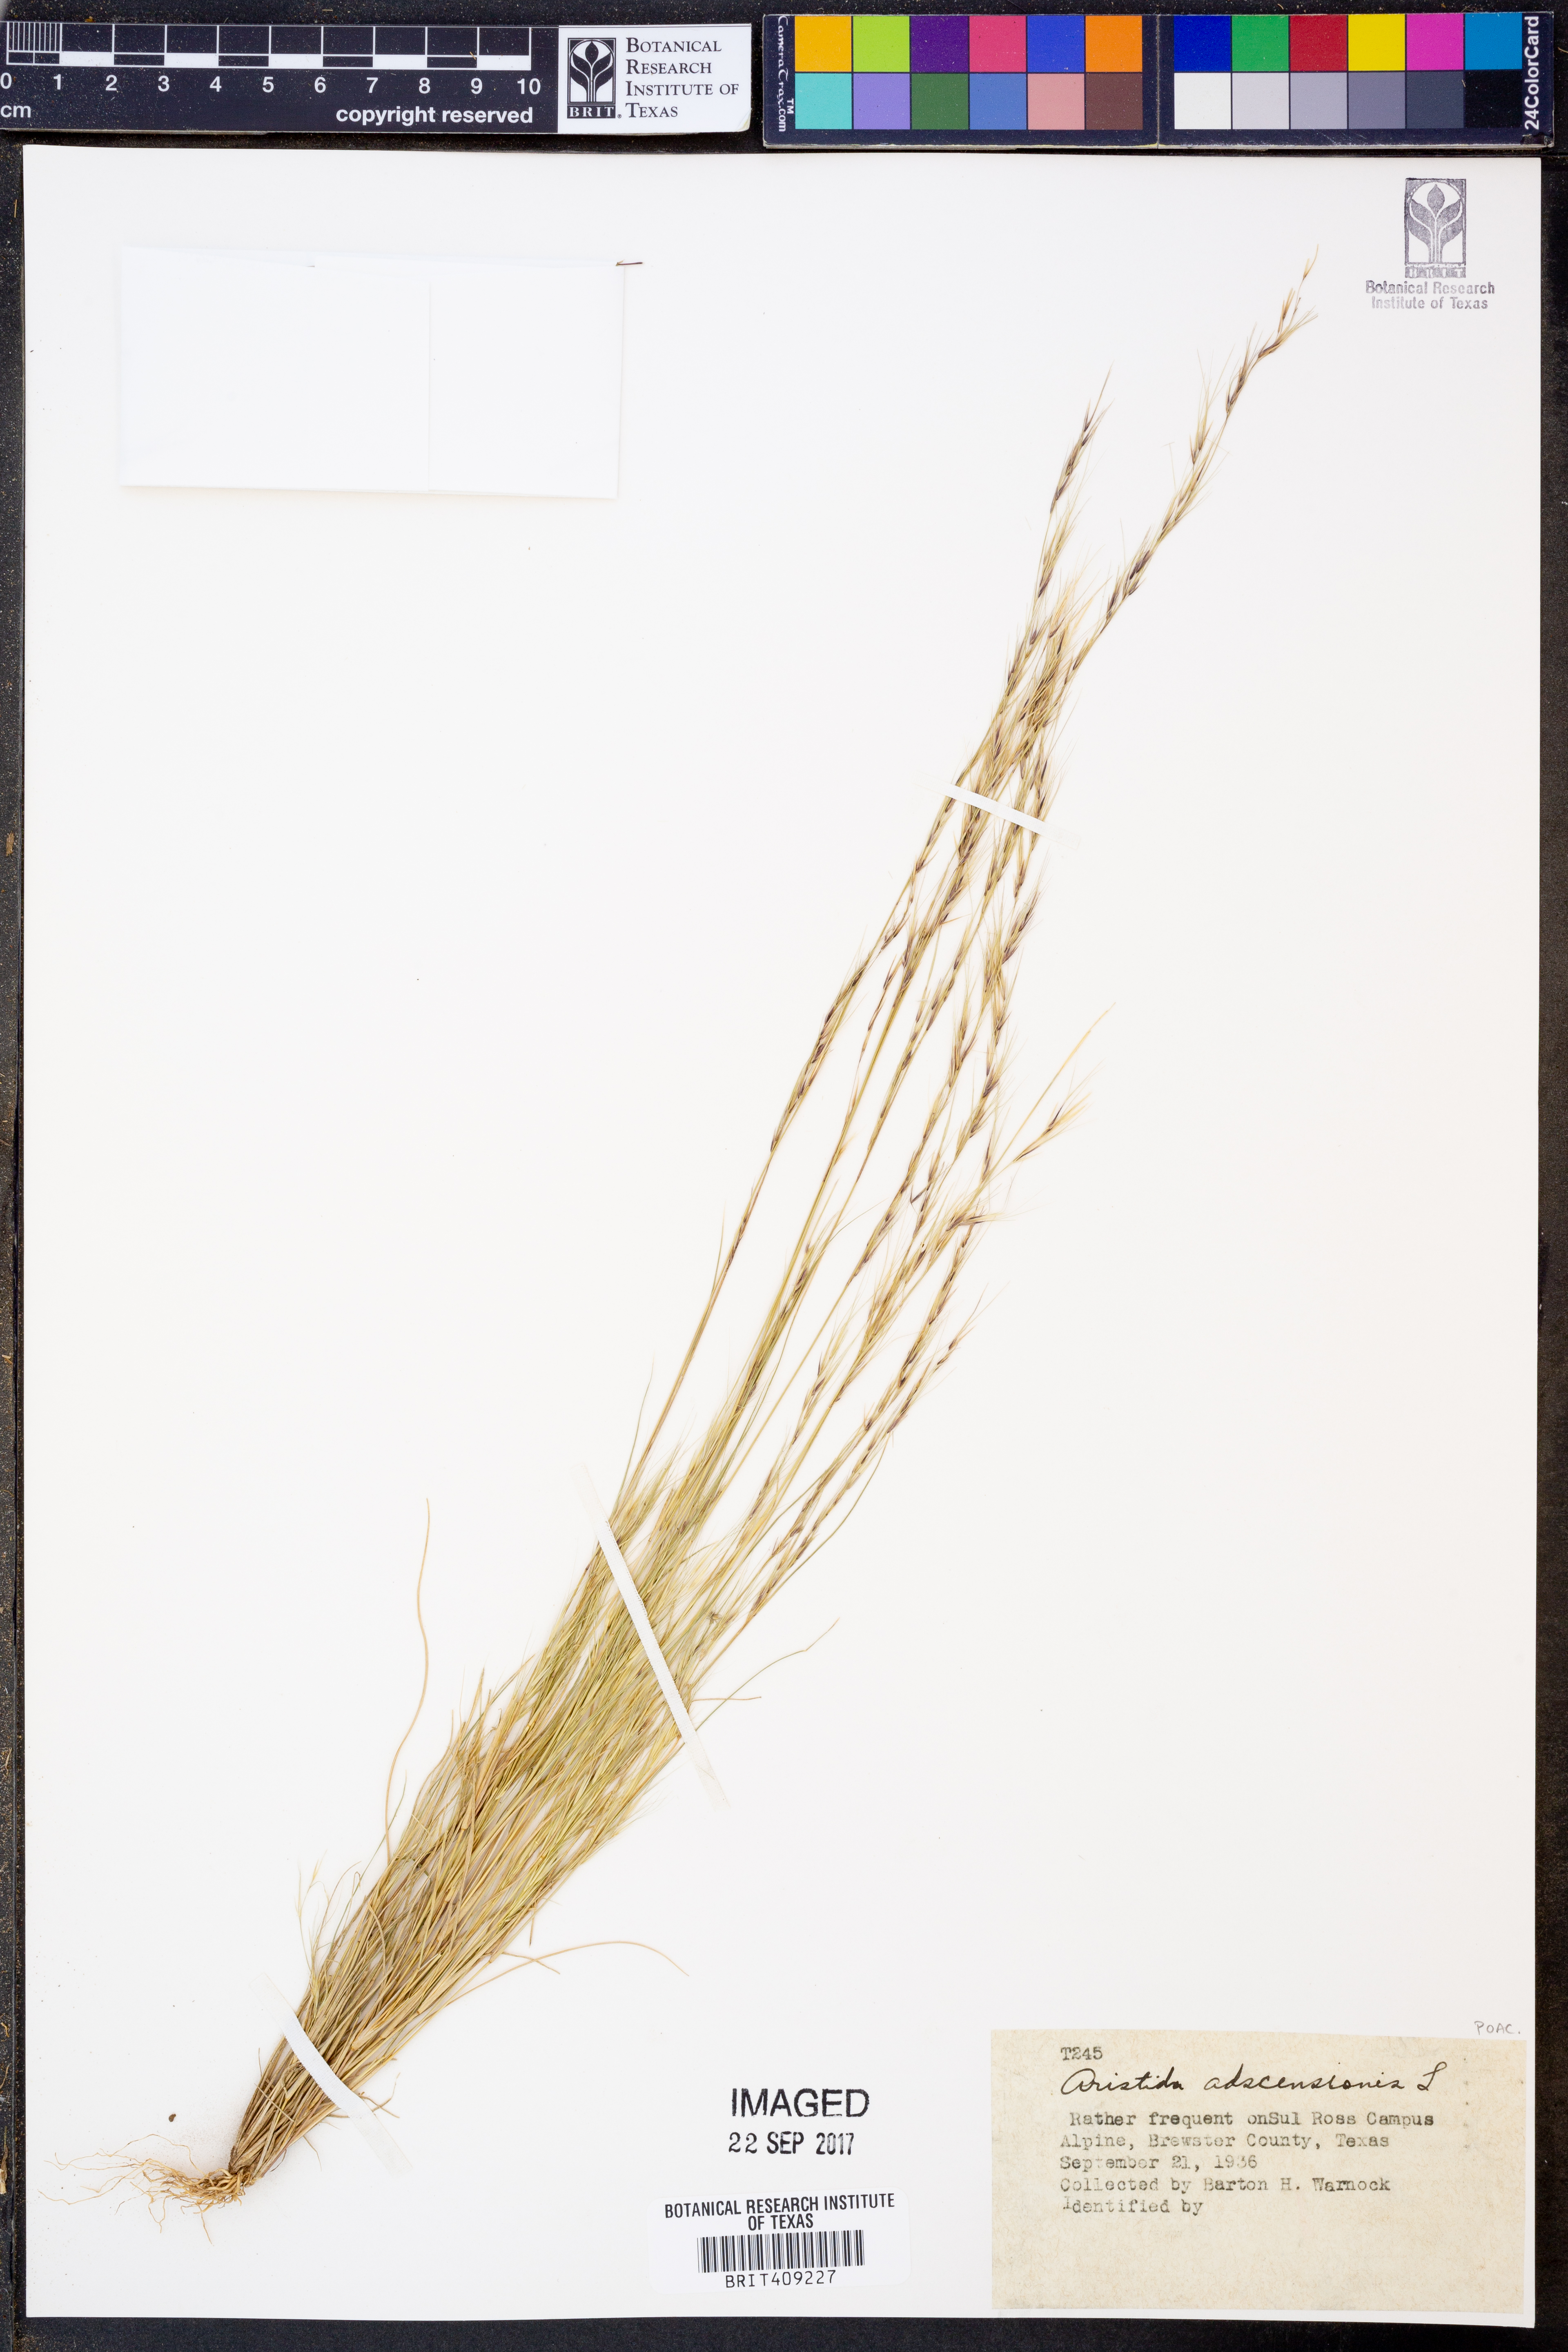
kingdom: Plantae
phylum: Tracheophyta
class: Liliopsida
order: Poales
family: Poaceae
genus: Aristida
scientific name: Aristida adscensionis
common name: Sixweeks threeawn
